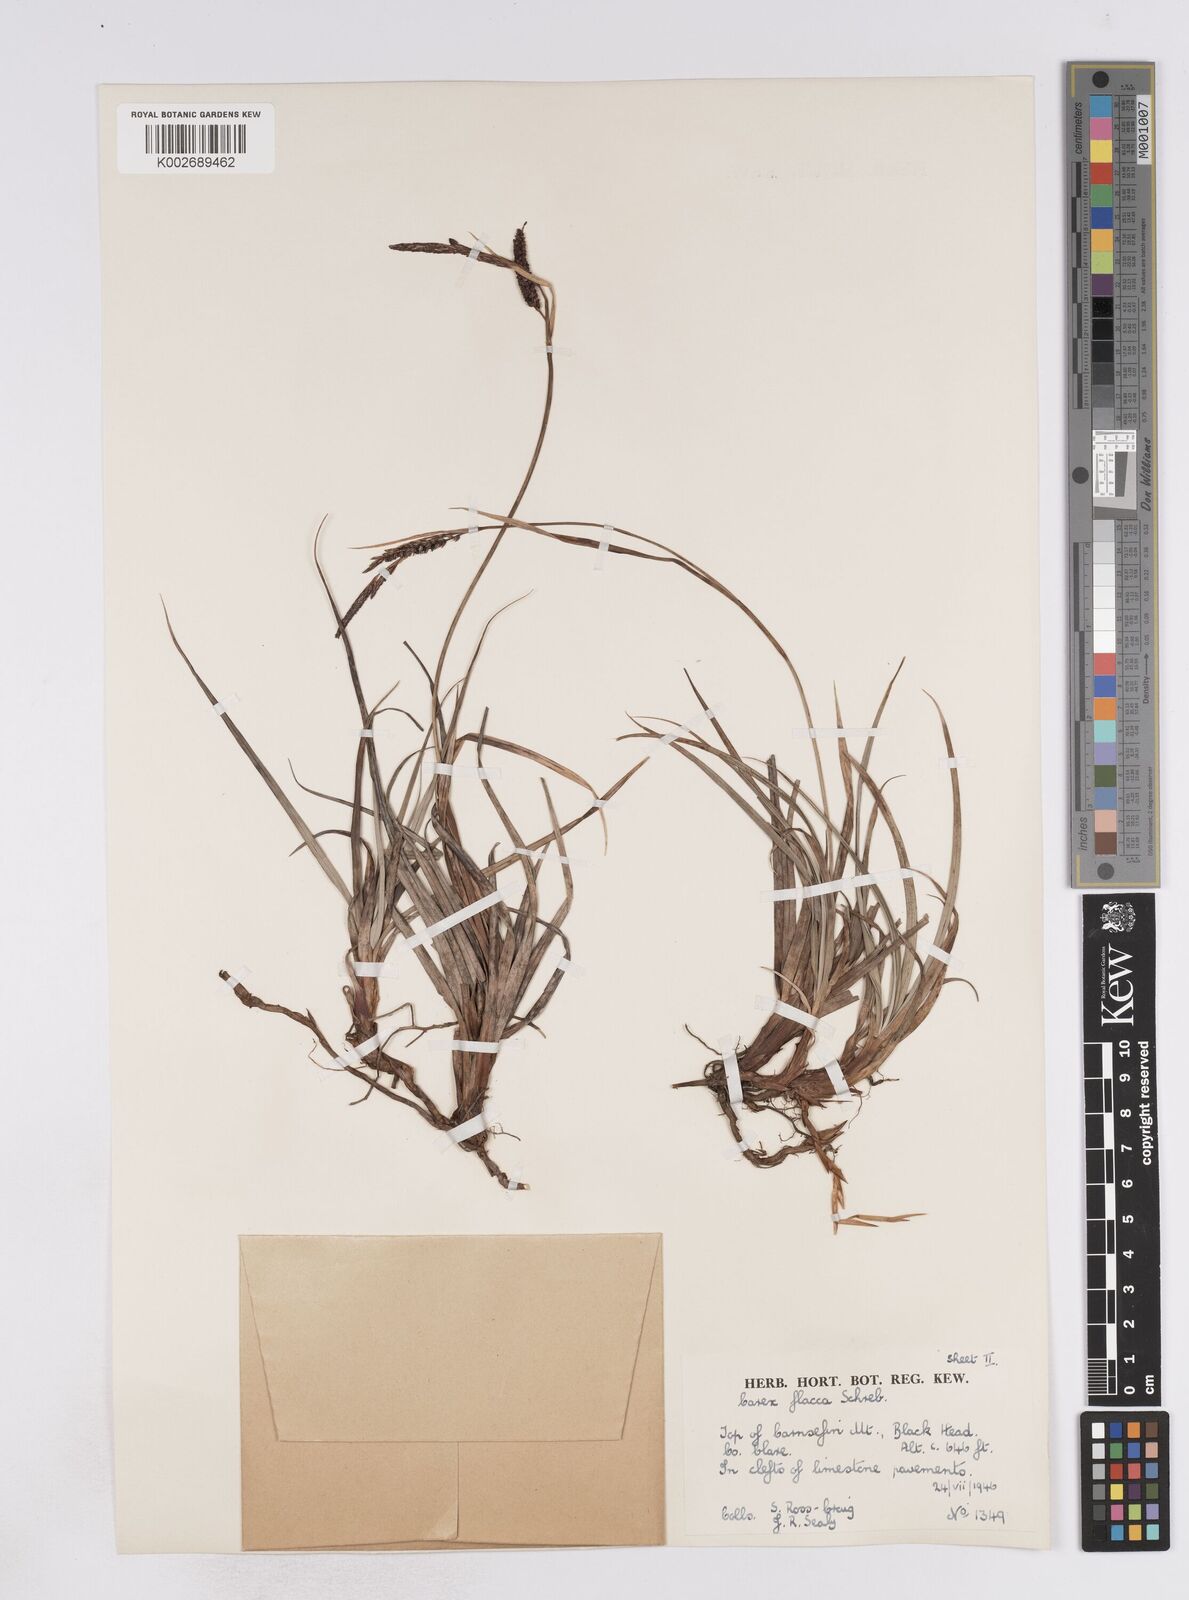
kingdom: Plantae
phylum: Tracheophyta
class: Liliopsida
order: Poales
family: Cyperaceae
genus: Carex
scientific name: Carex flacca
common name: Glaucous sedge
